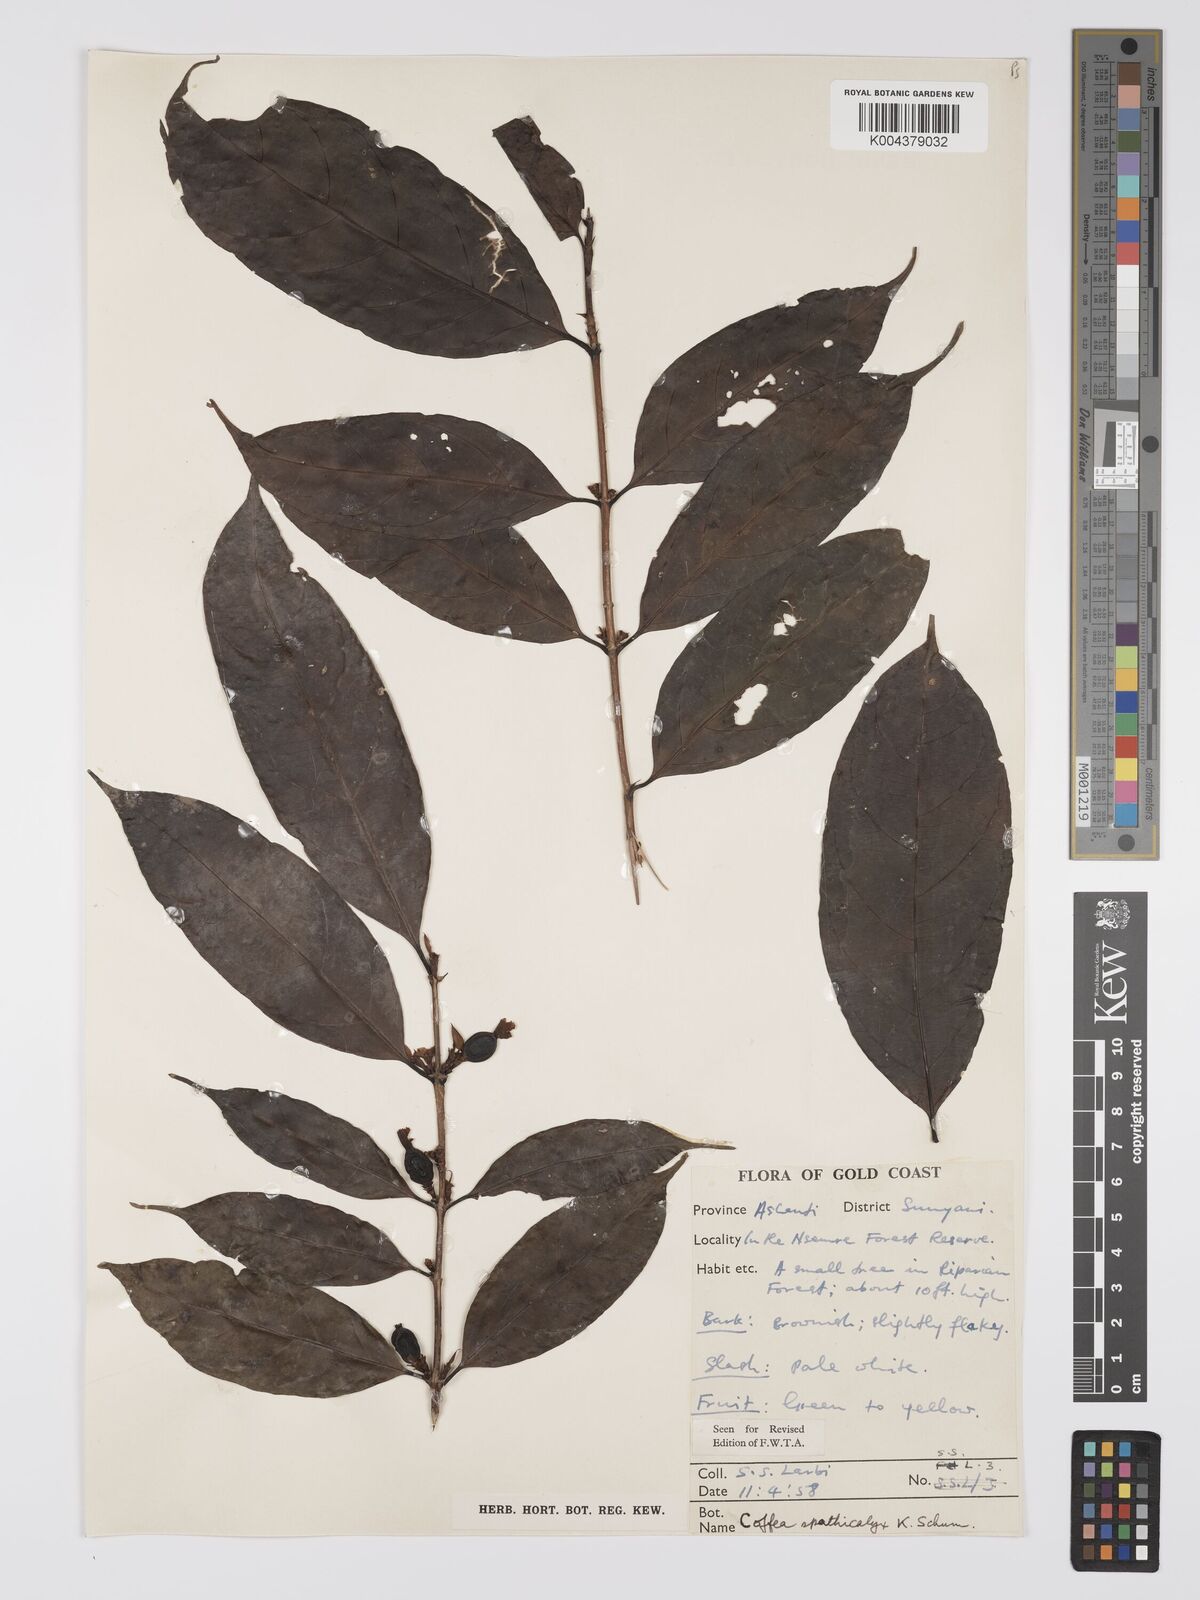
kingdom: Plantae
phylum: Tracheophyta
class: Magnoliopsida
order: Gentianales
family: Rubiaceae
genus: Calycosiphonia
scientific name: Calycosiphonia spathicalyx
